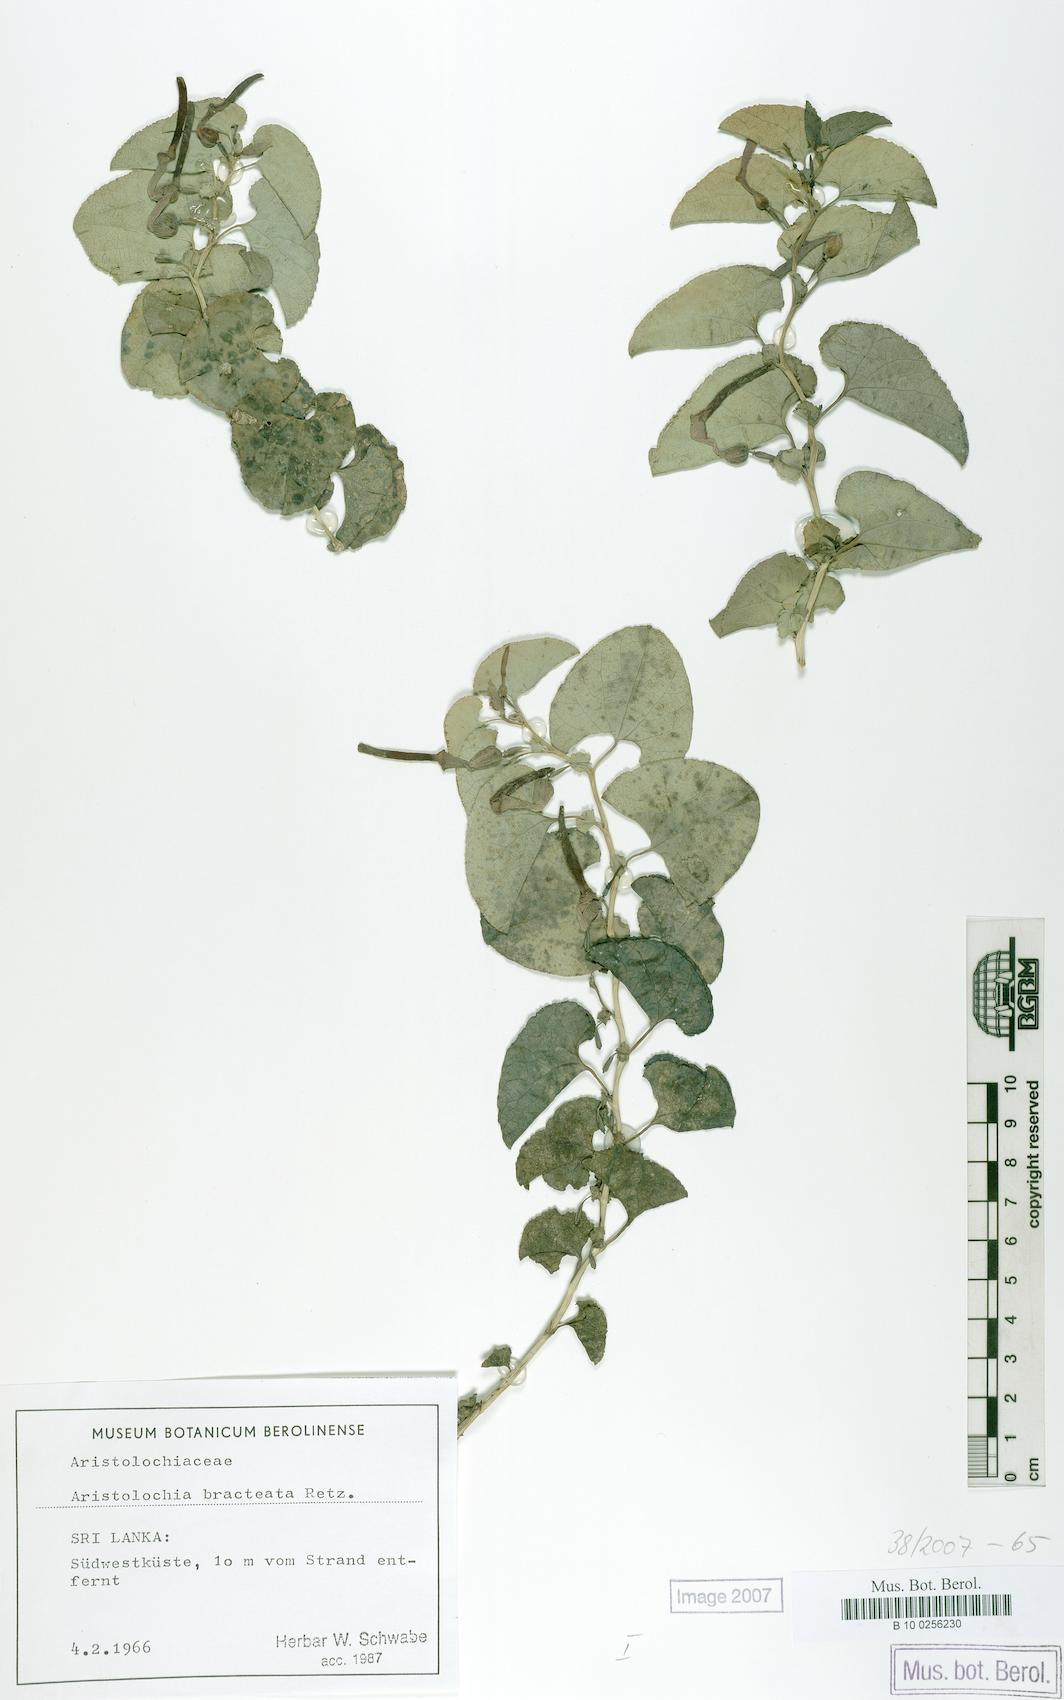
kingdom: Plantae
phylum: Tracheophyta
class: Magnoliopsida
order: Piperales
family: Aristolochiaceae
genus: Aristolochia
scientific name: Aristolochia bracteolata
